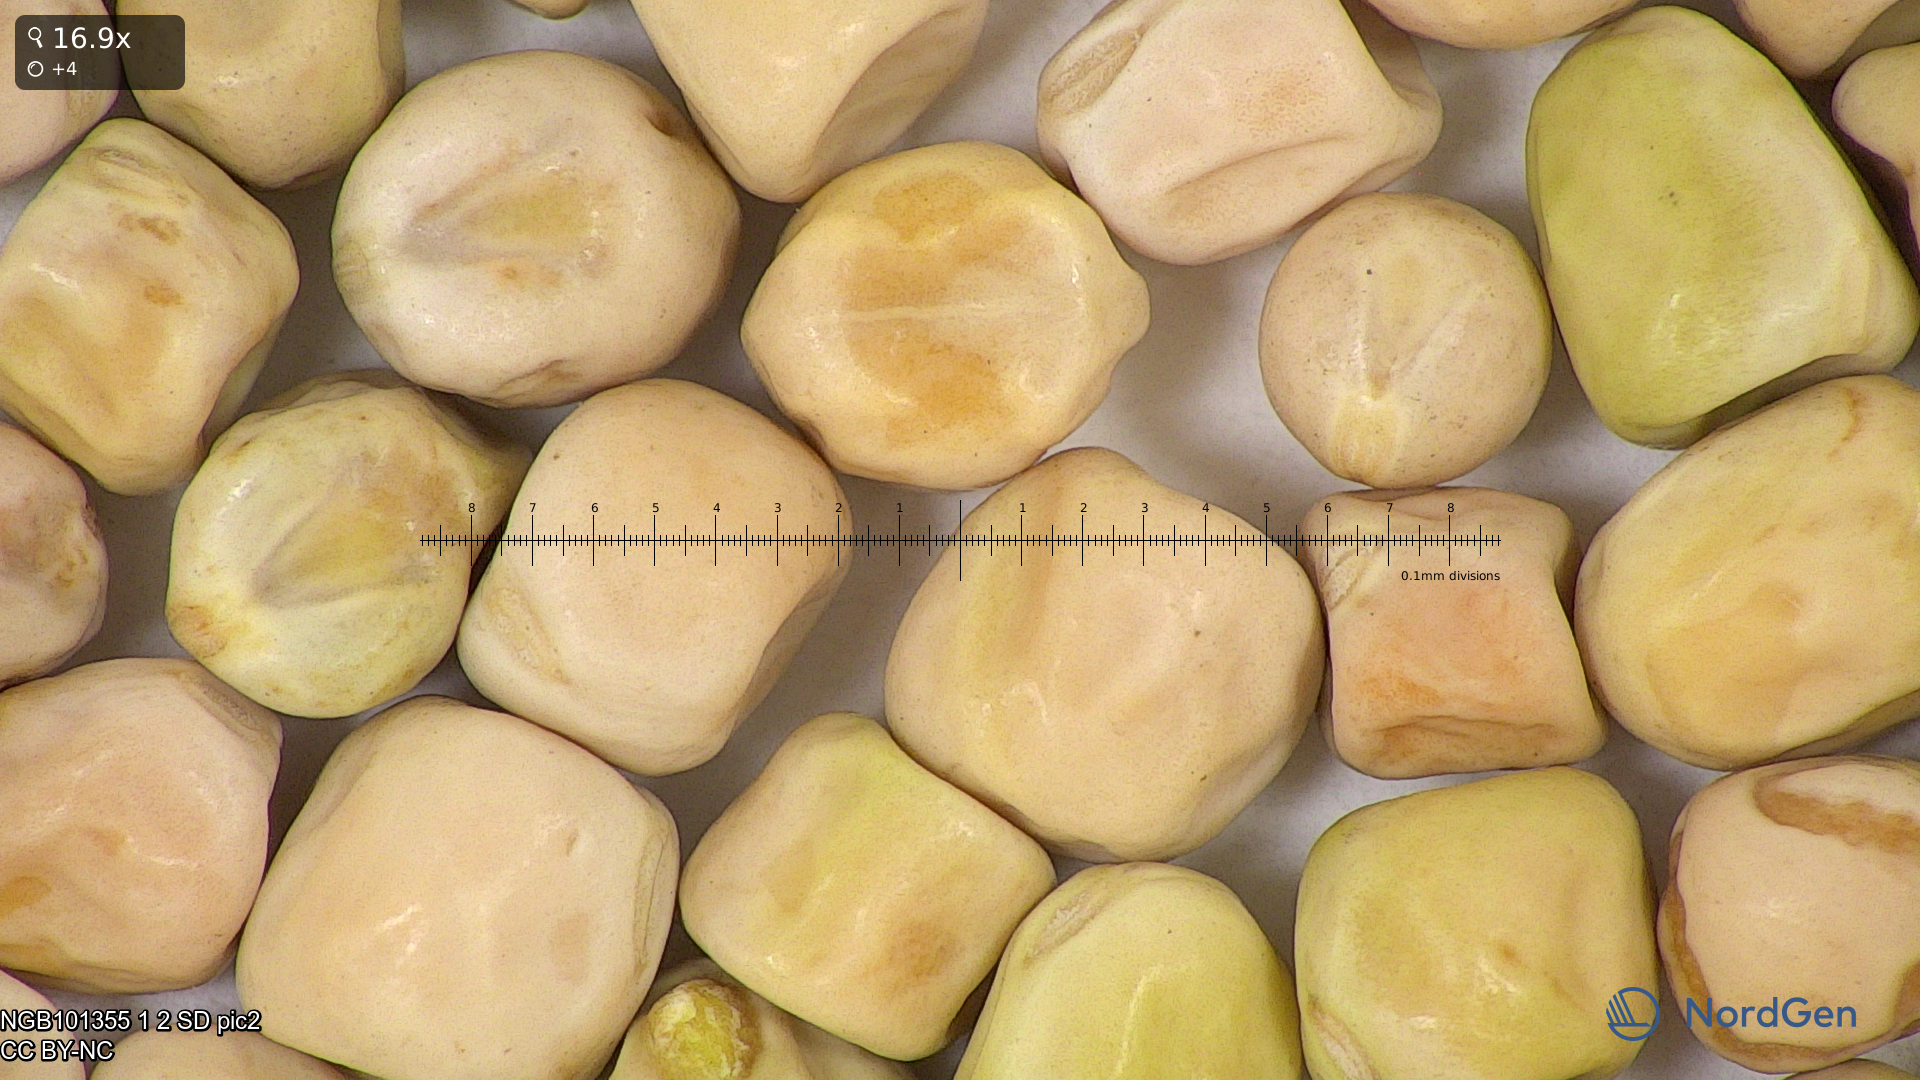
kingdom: Plantae
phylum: Tracheophyta
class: Magnoliopsida
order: Fabales
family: Fabaceae
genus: Lathyrus
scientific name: Lathyrus oleraceus
